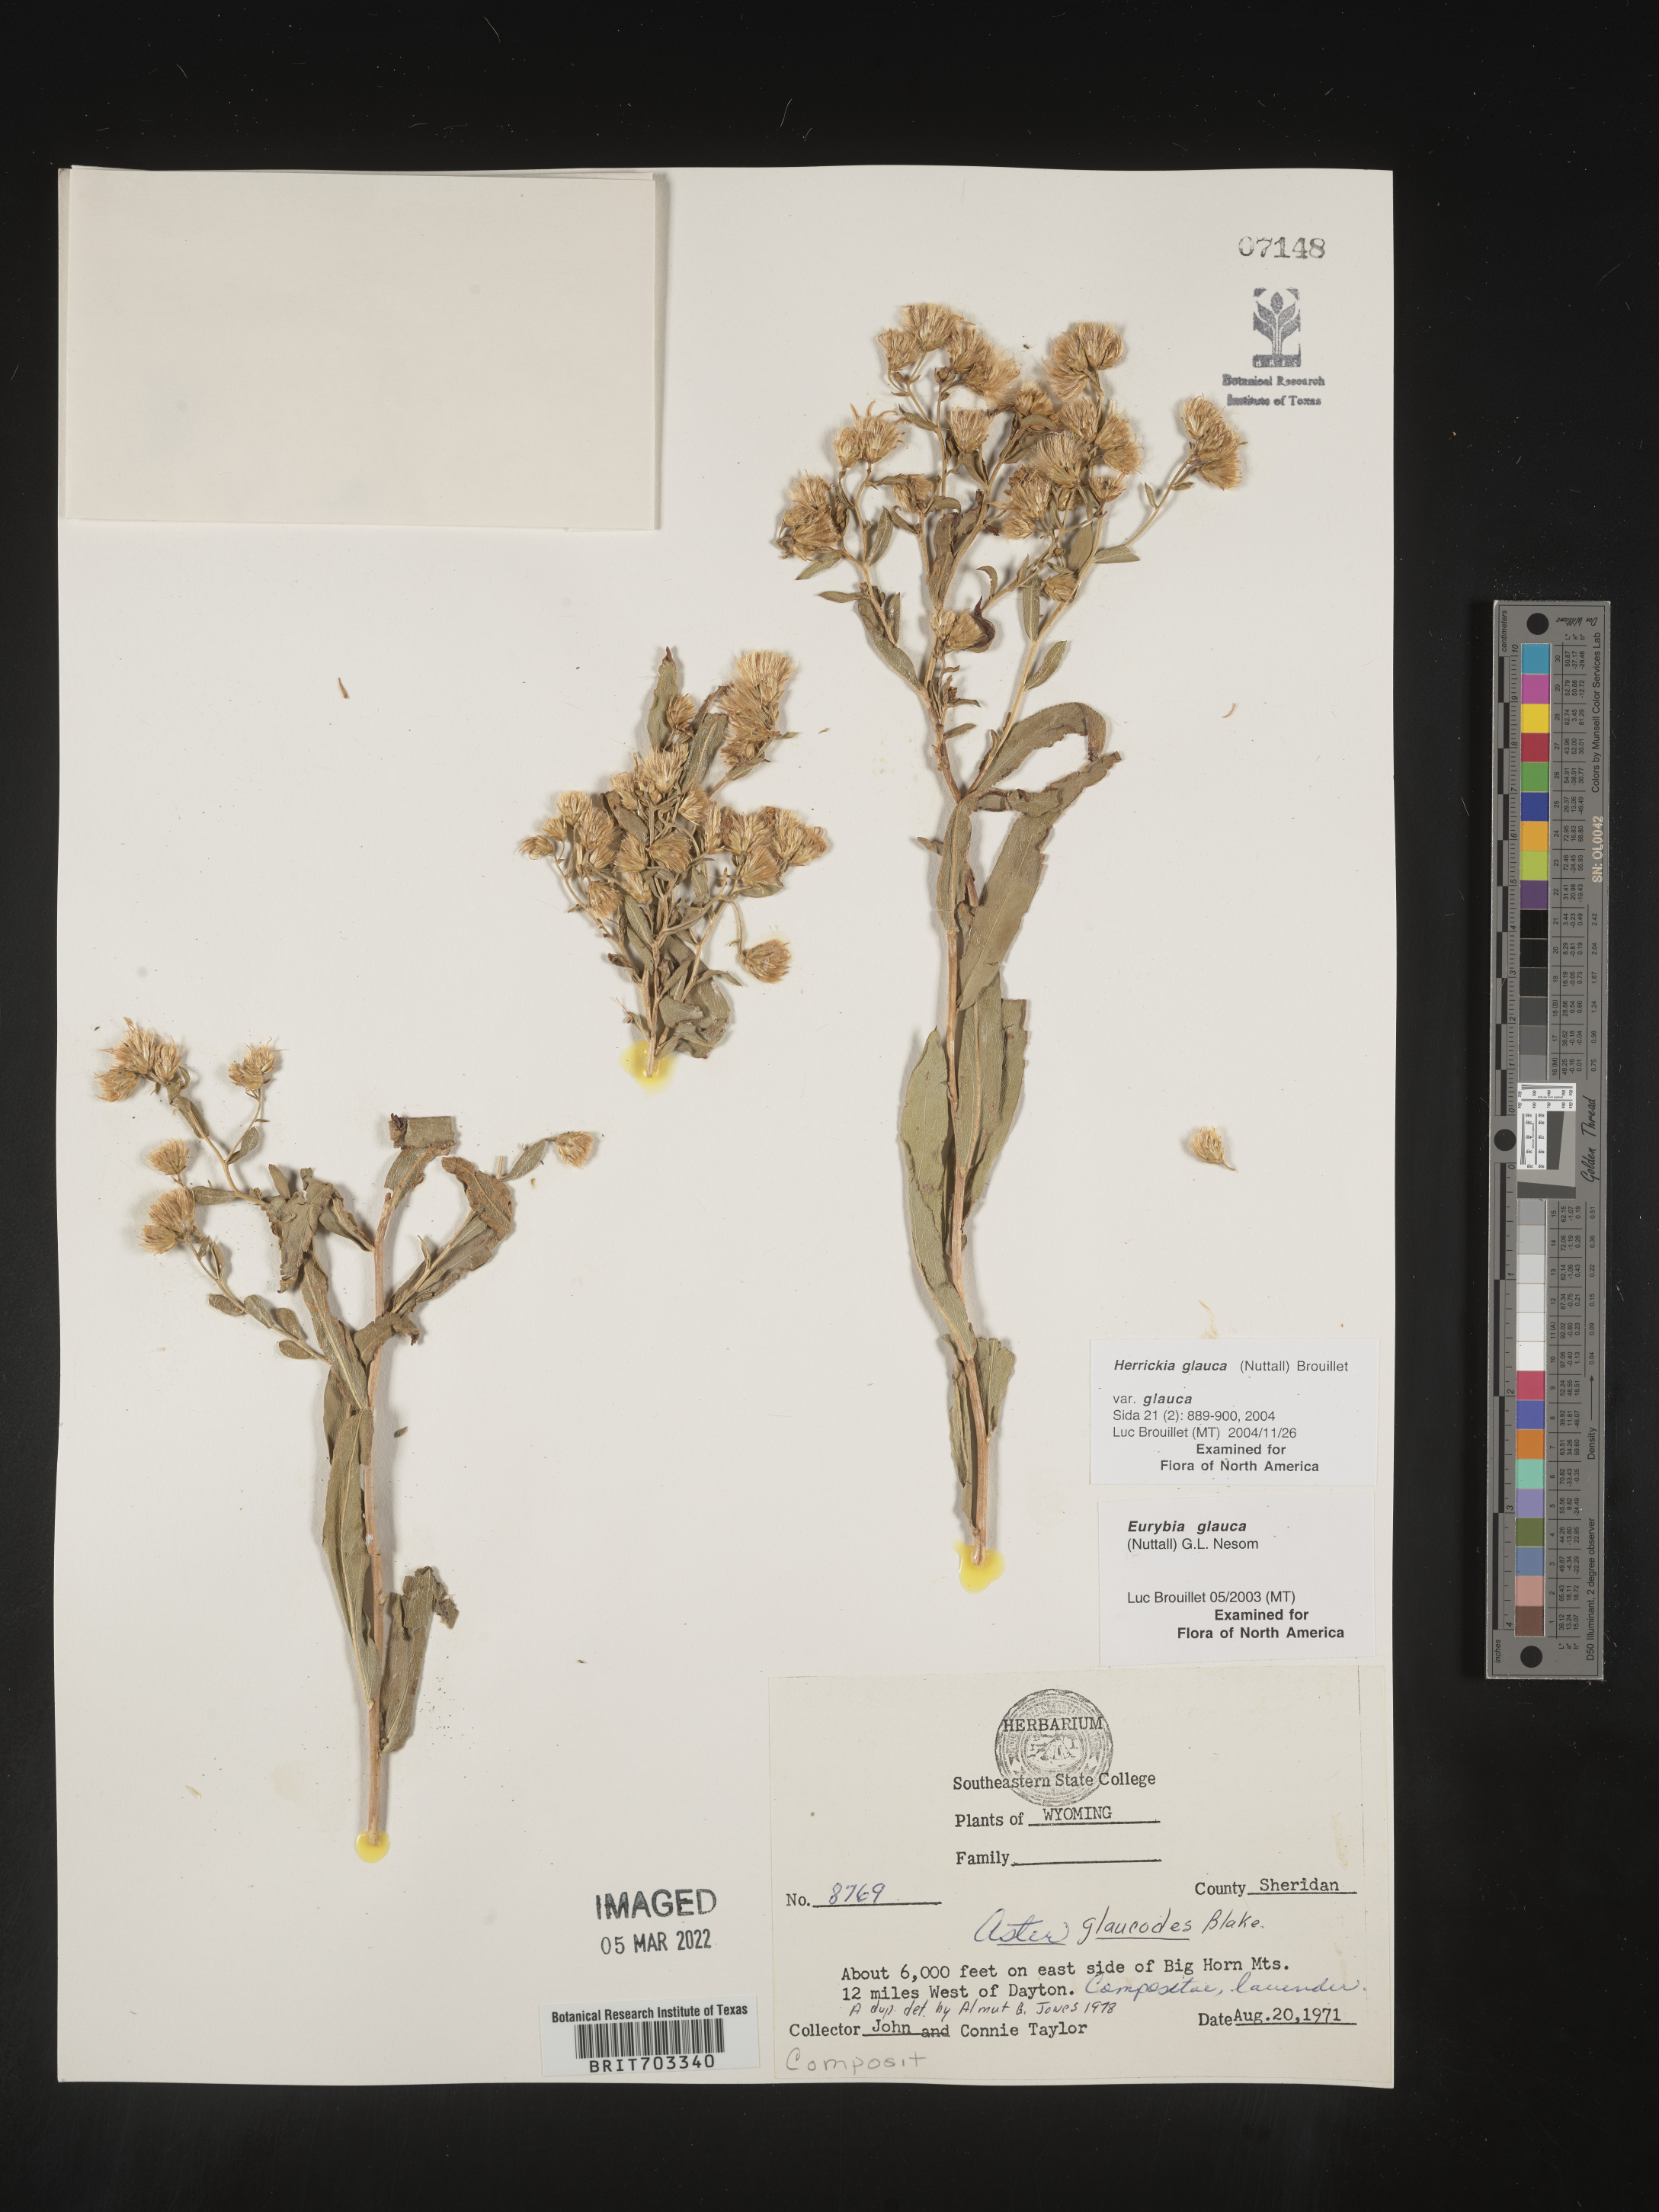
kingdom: Plantae
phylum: Tracheophyta
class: Magnoliopsida
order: Asterales
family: Asteraceae
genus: Eurybia
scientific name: Eurybia glauca
